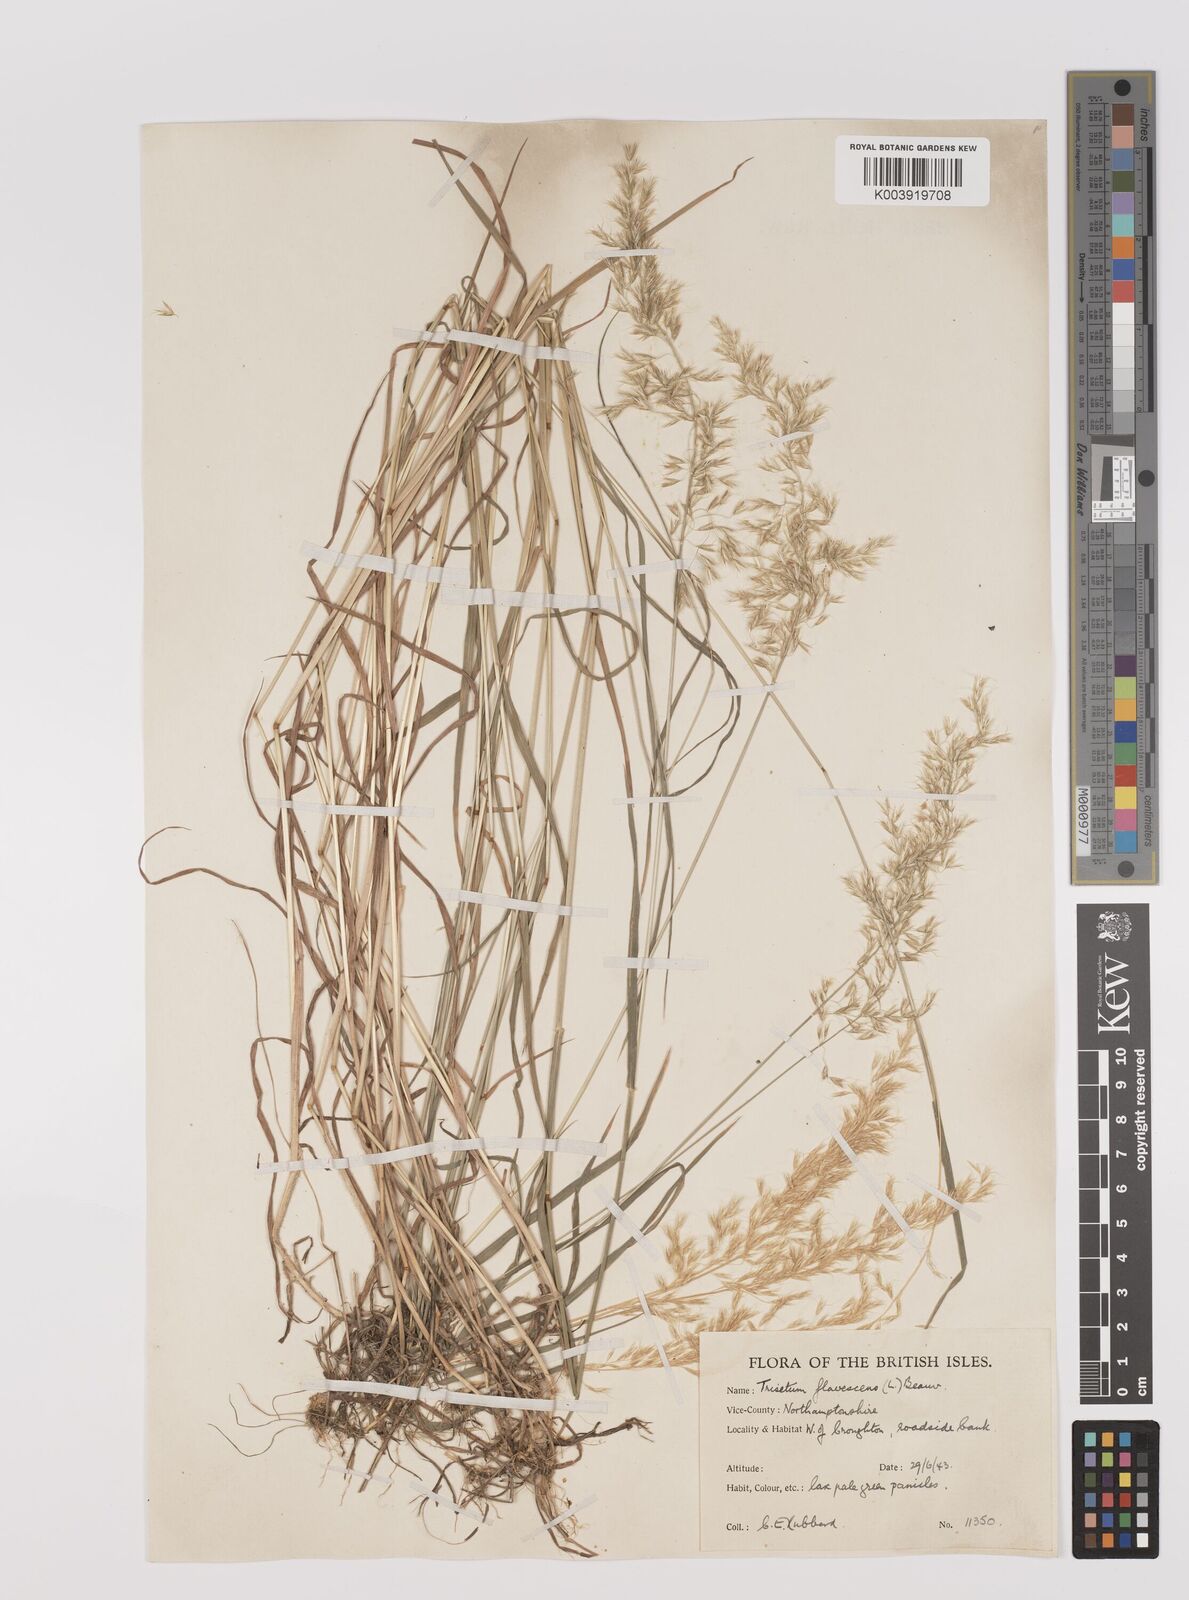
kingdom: Plantae
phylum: Tracheophyta
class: Liliopsida
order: Poales
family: Poaceae
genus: Trisetum
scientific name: Trisetum flavescens
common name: Yellow oat-grass
